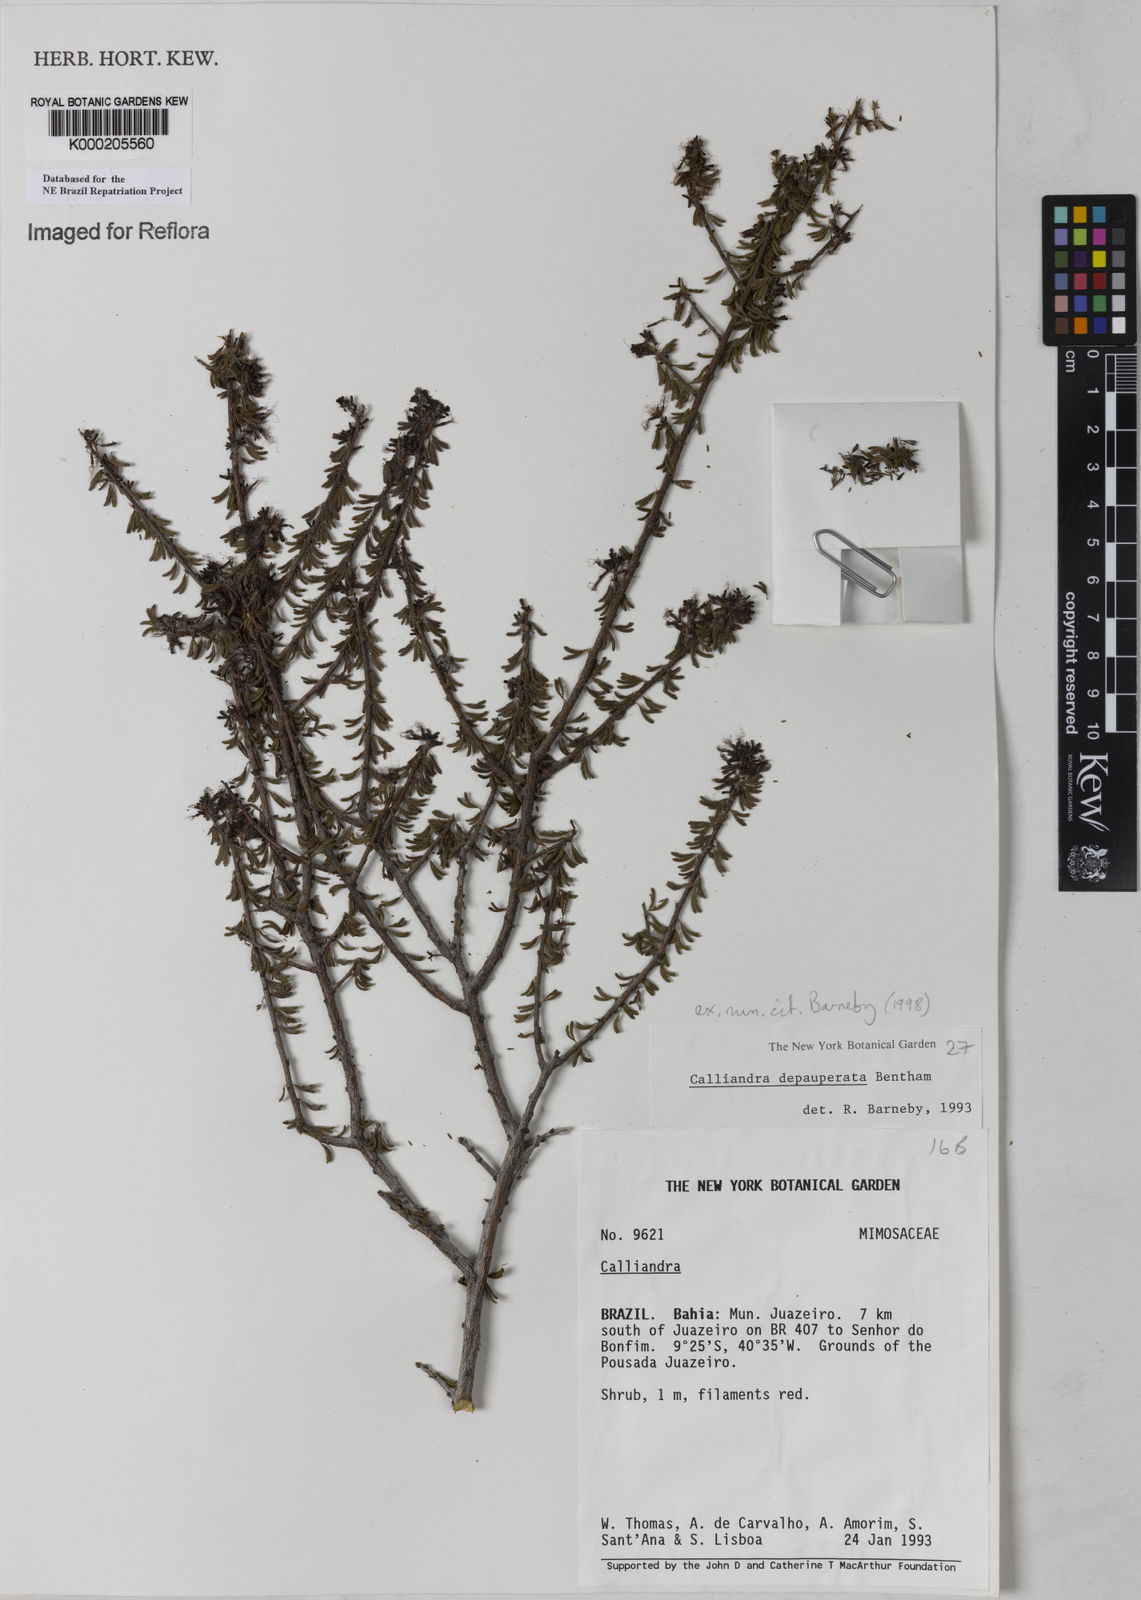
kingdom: Plantae
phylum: Tracheophyta
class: Magnoliopsida
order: Fabales
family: Fabaceae
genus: Calliandra
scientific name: Calliandra depauperata
